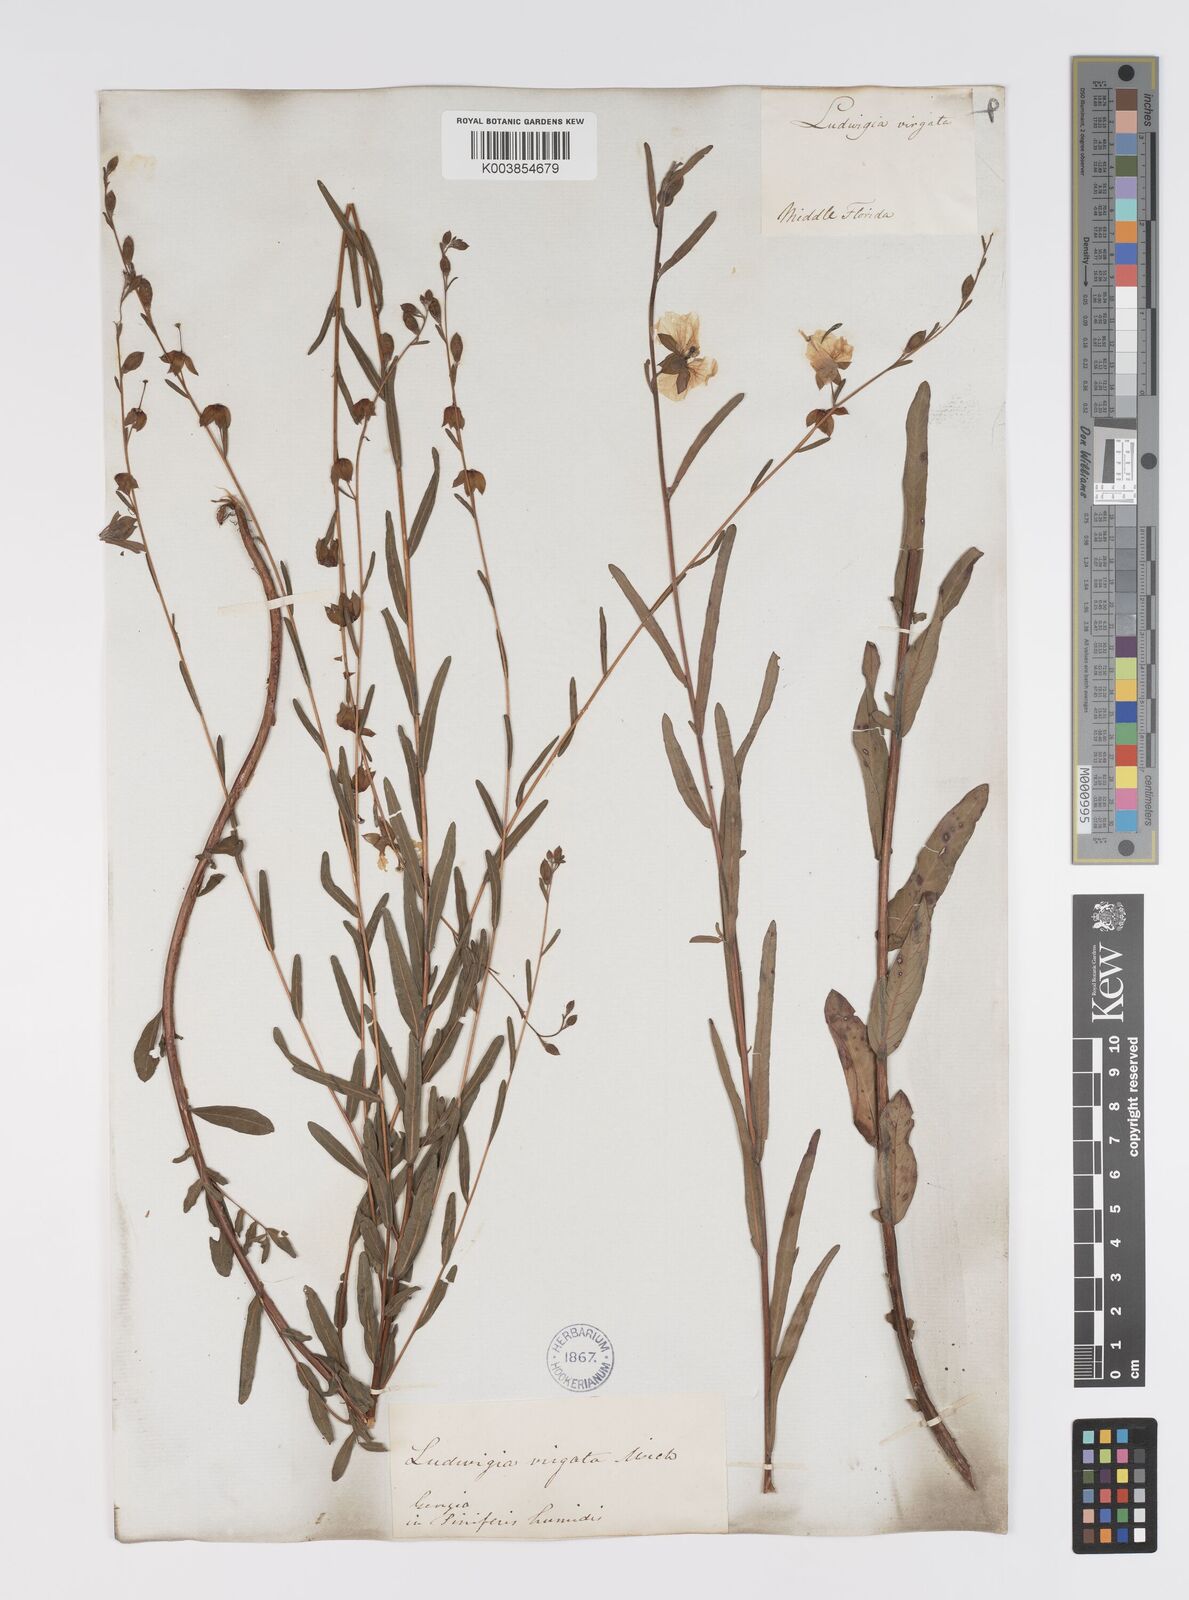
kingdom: Plantae
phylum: Tracheophyta
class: Magnoliopsida
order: Myrtales
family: Onagraceae
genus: Ludwigia
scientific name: Ludwigia virgata
